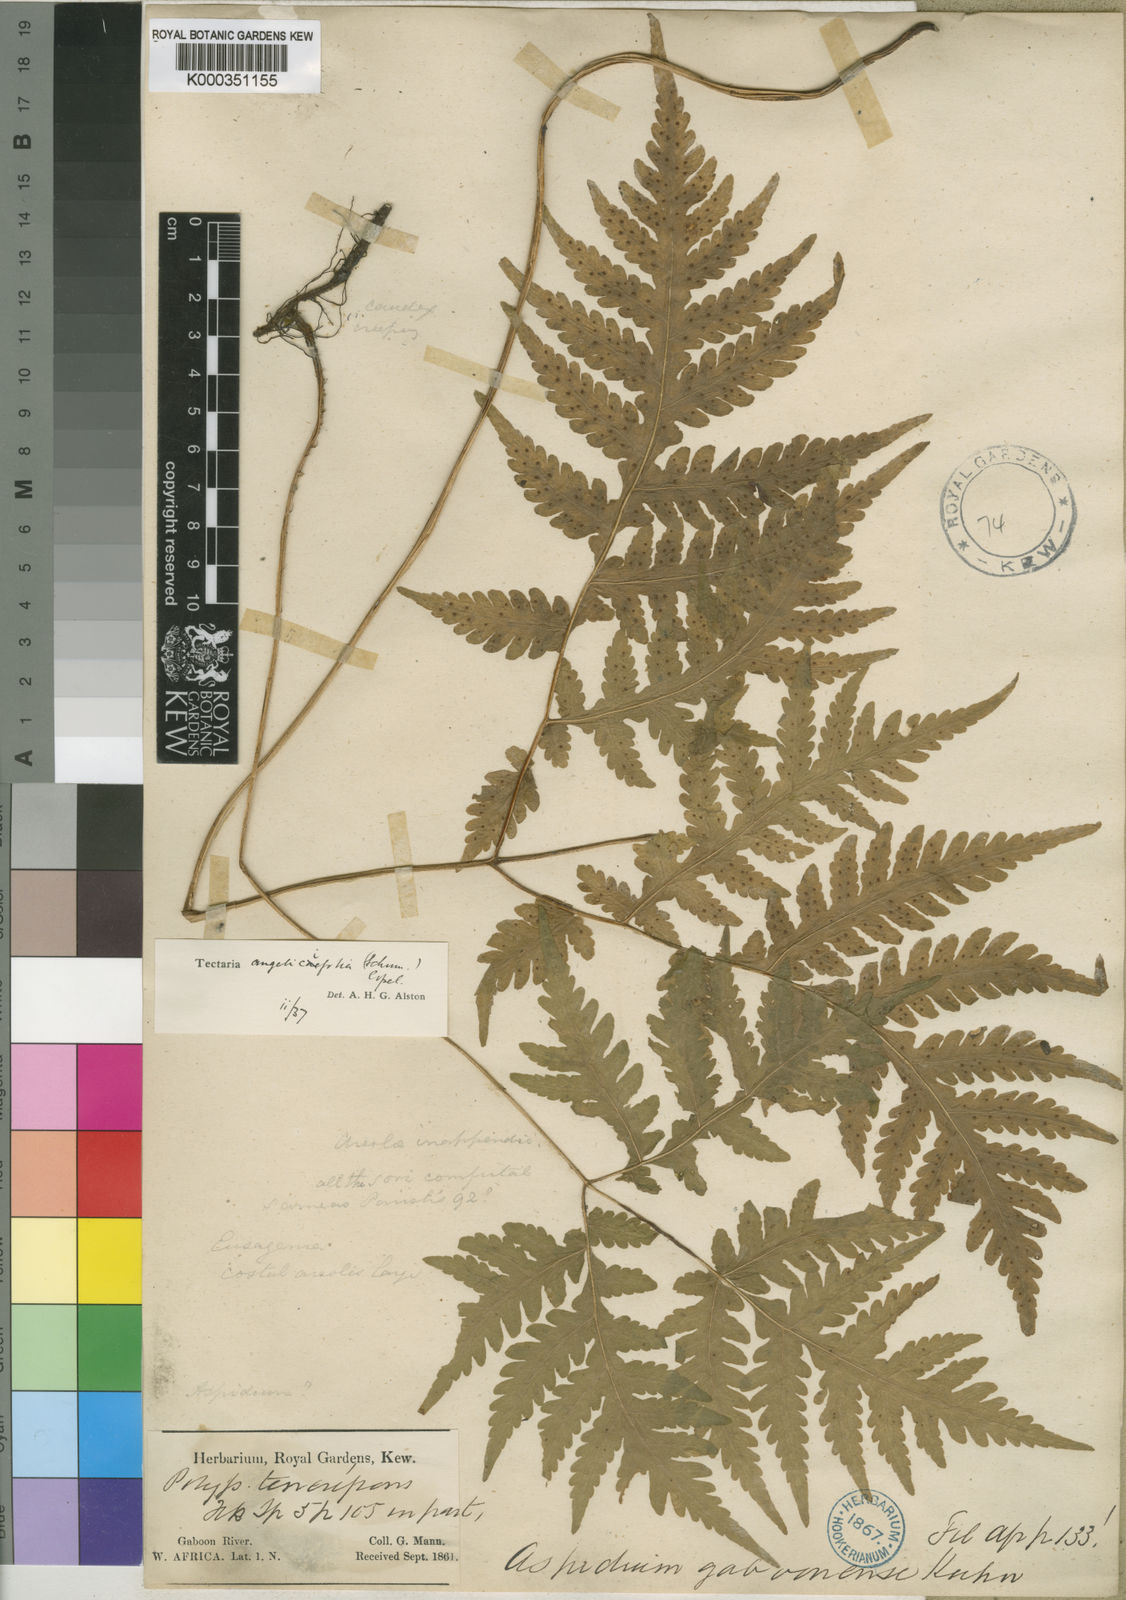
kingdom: Plantae
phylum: Tracheophyta
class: Polypodiopsida
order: Polypodiales
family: Tectariaceae
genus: Tectaria
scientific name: Tectaria angelicifolia
